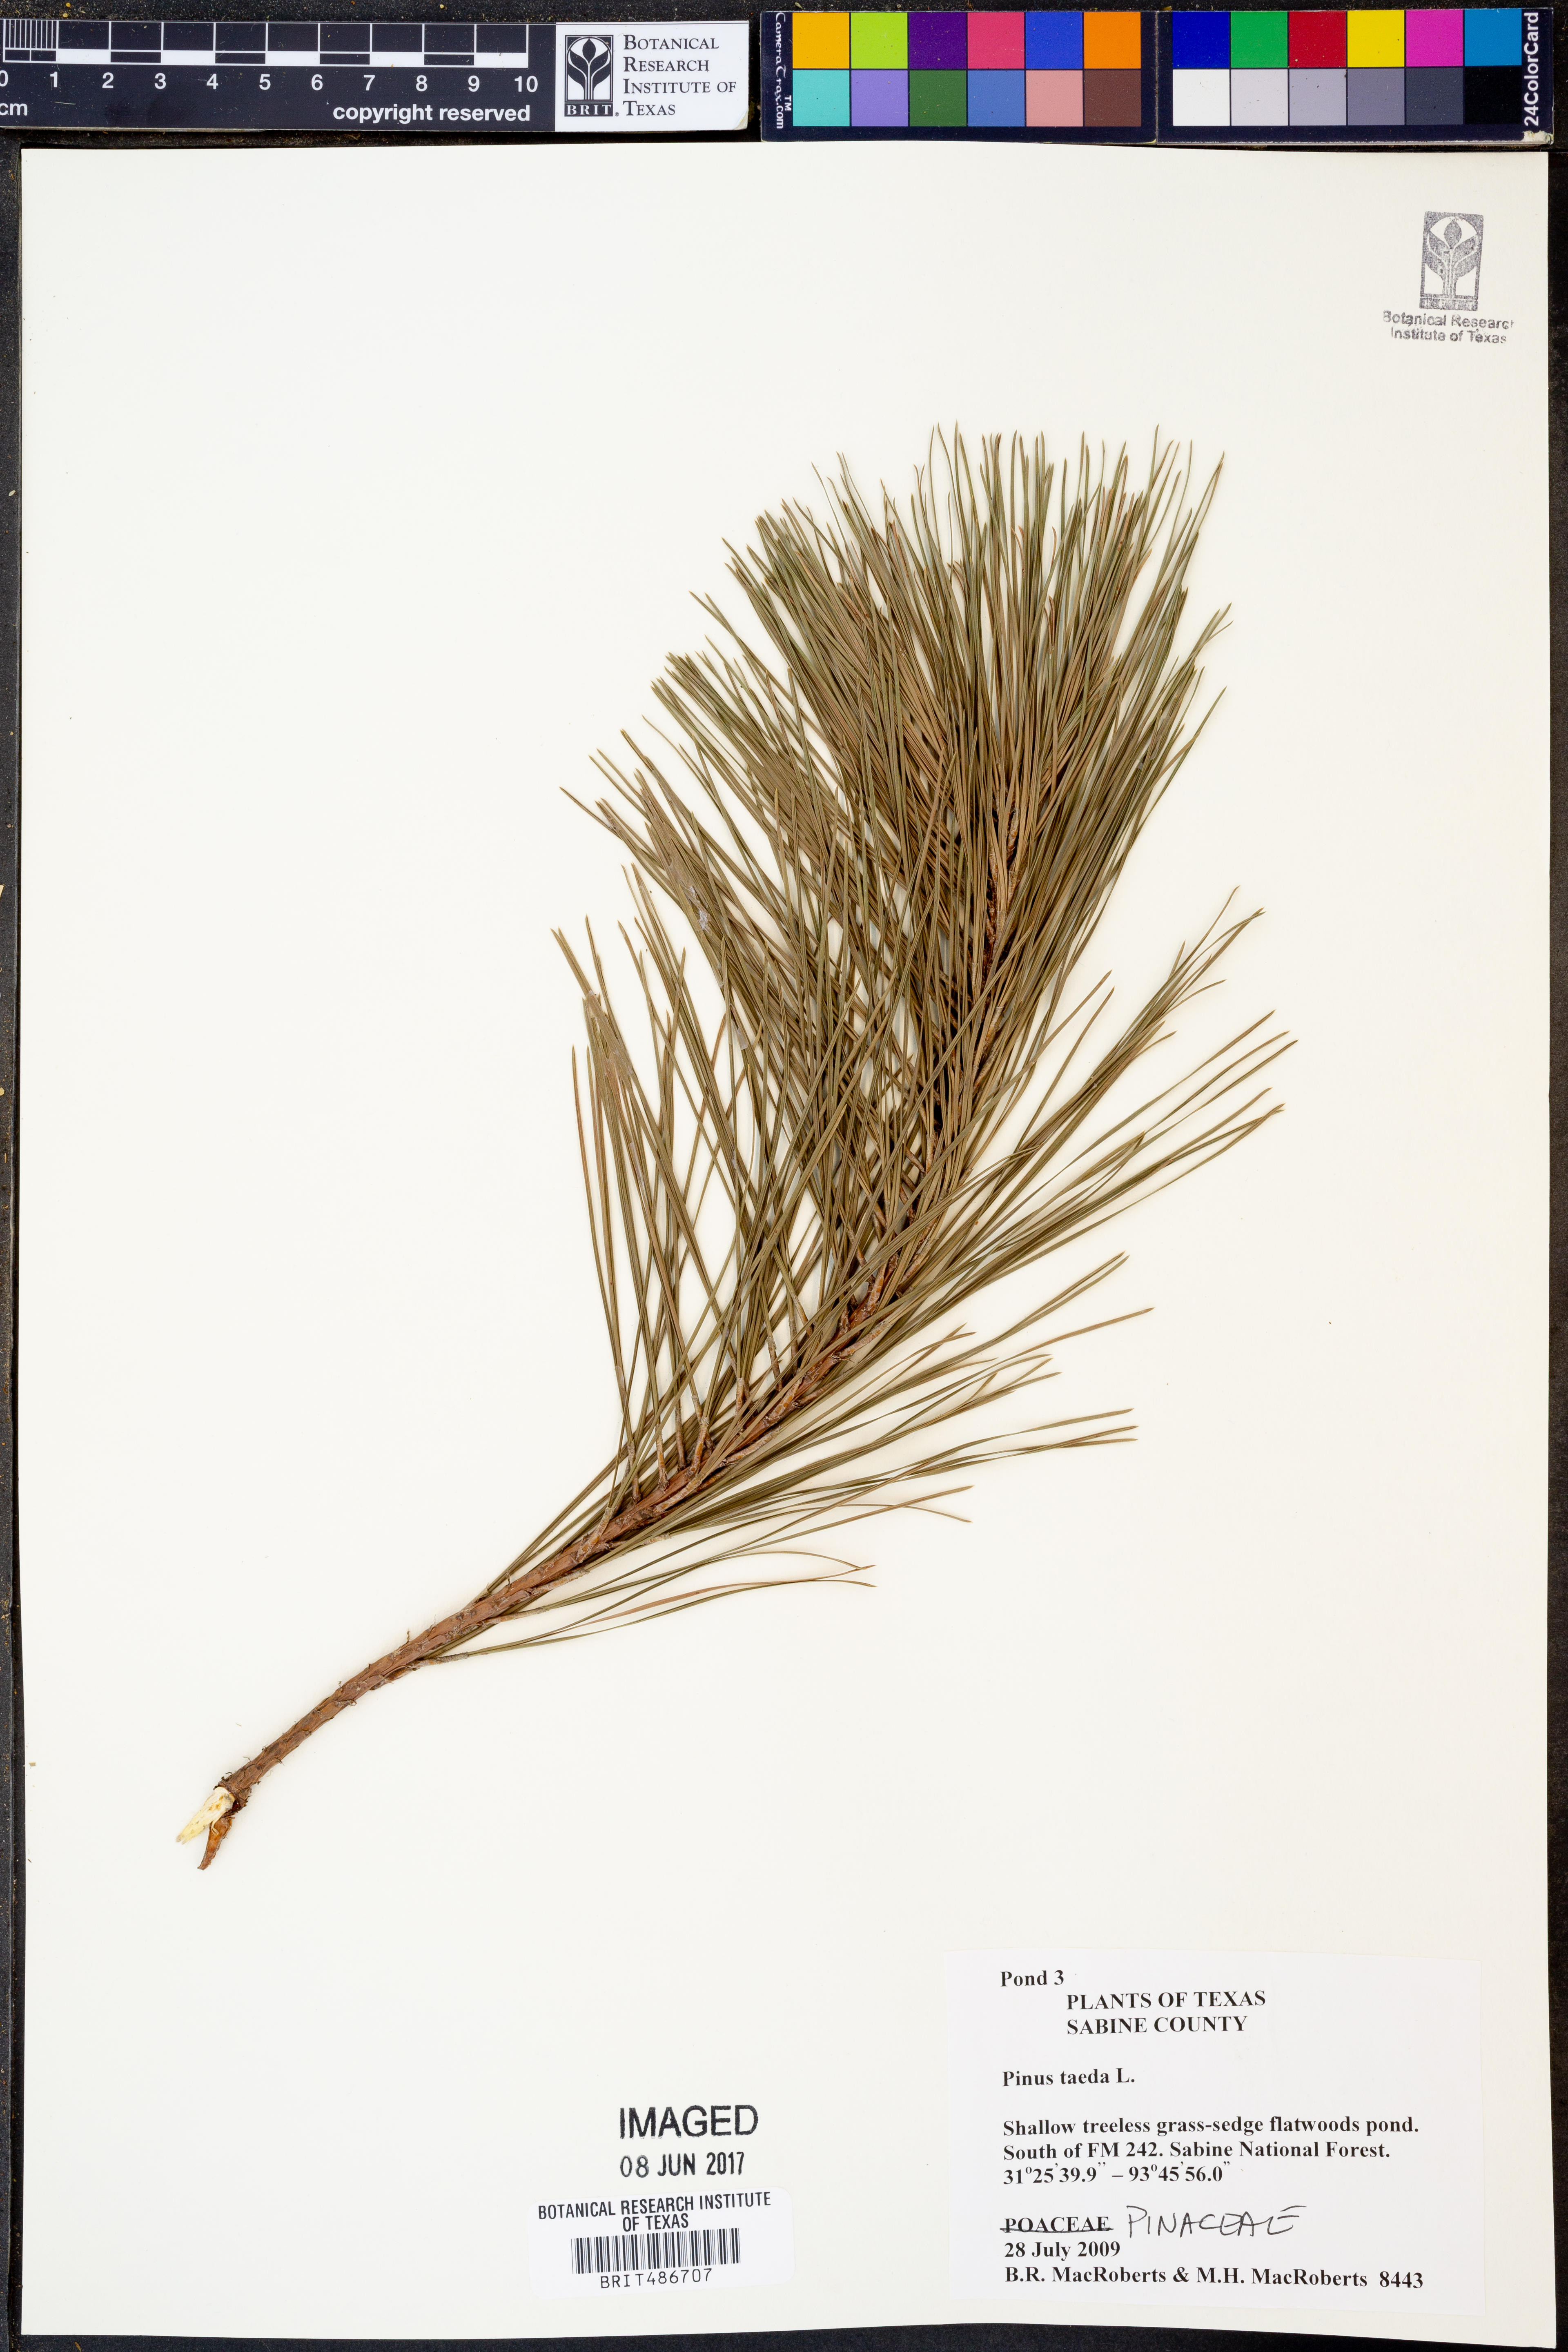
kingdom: Plantae
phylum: Tracheophyta
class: Pinopsida
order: Pinales
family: Pinaceae
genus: Pinus
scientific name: Pinus taeda
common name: Loblolly pine
